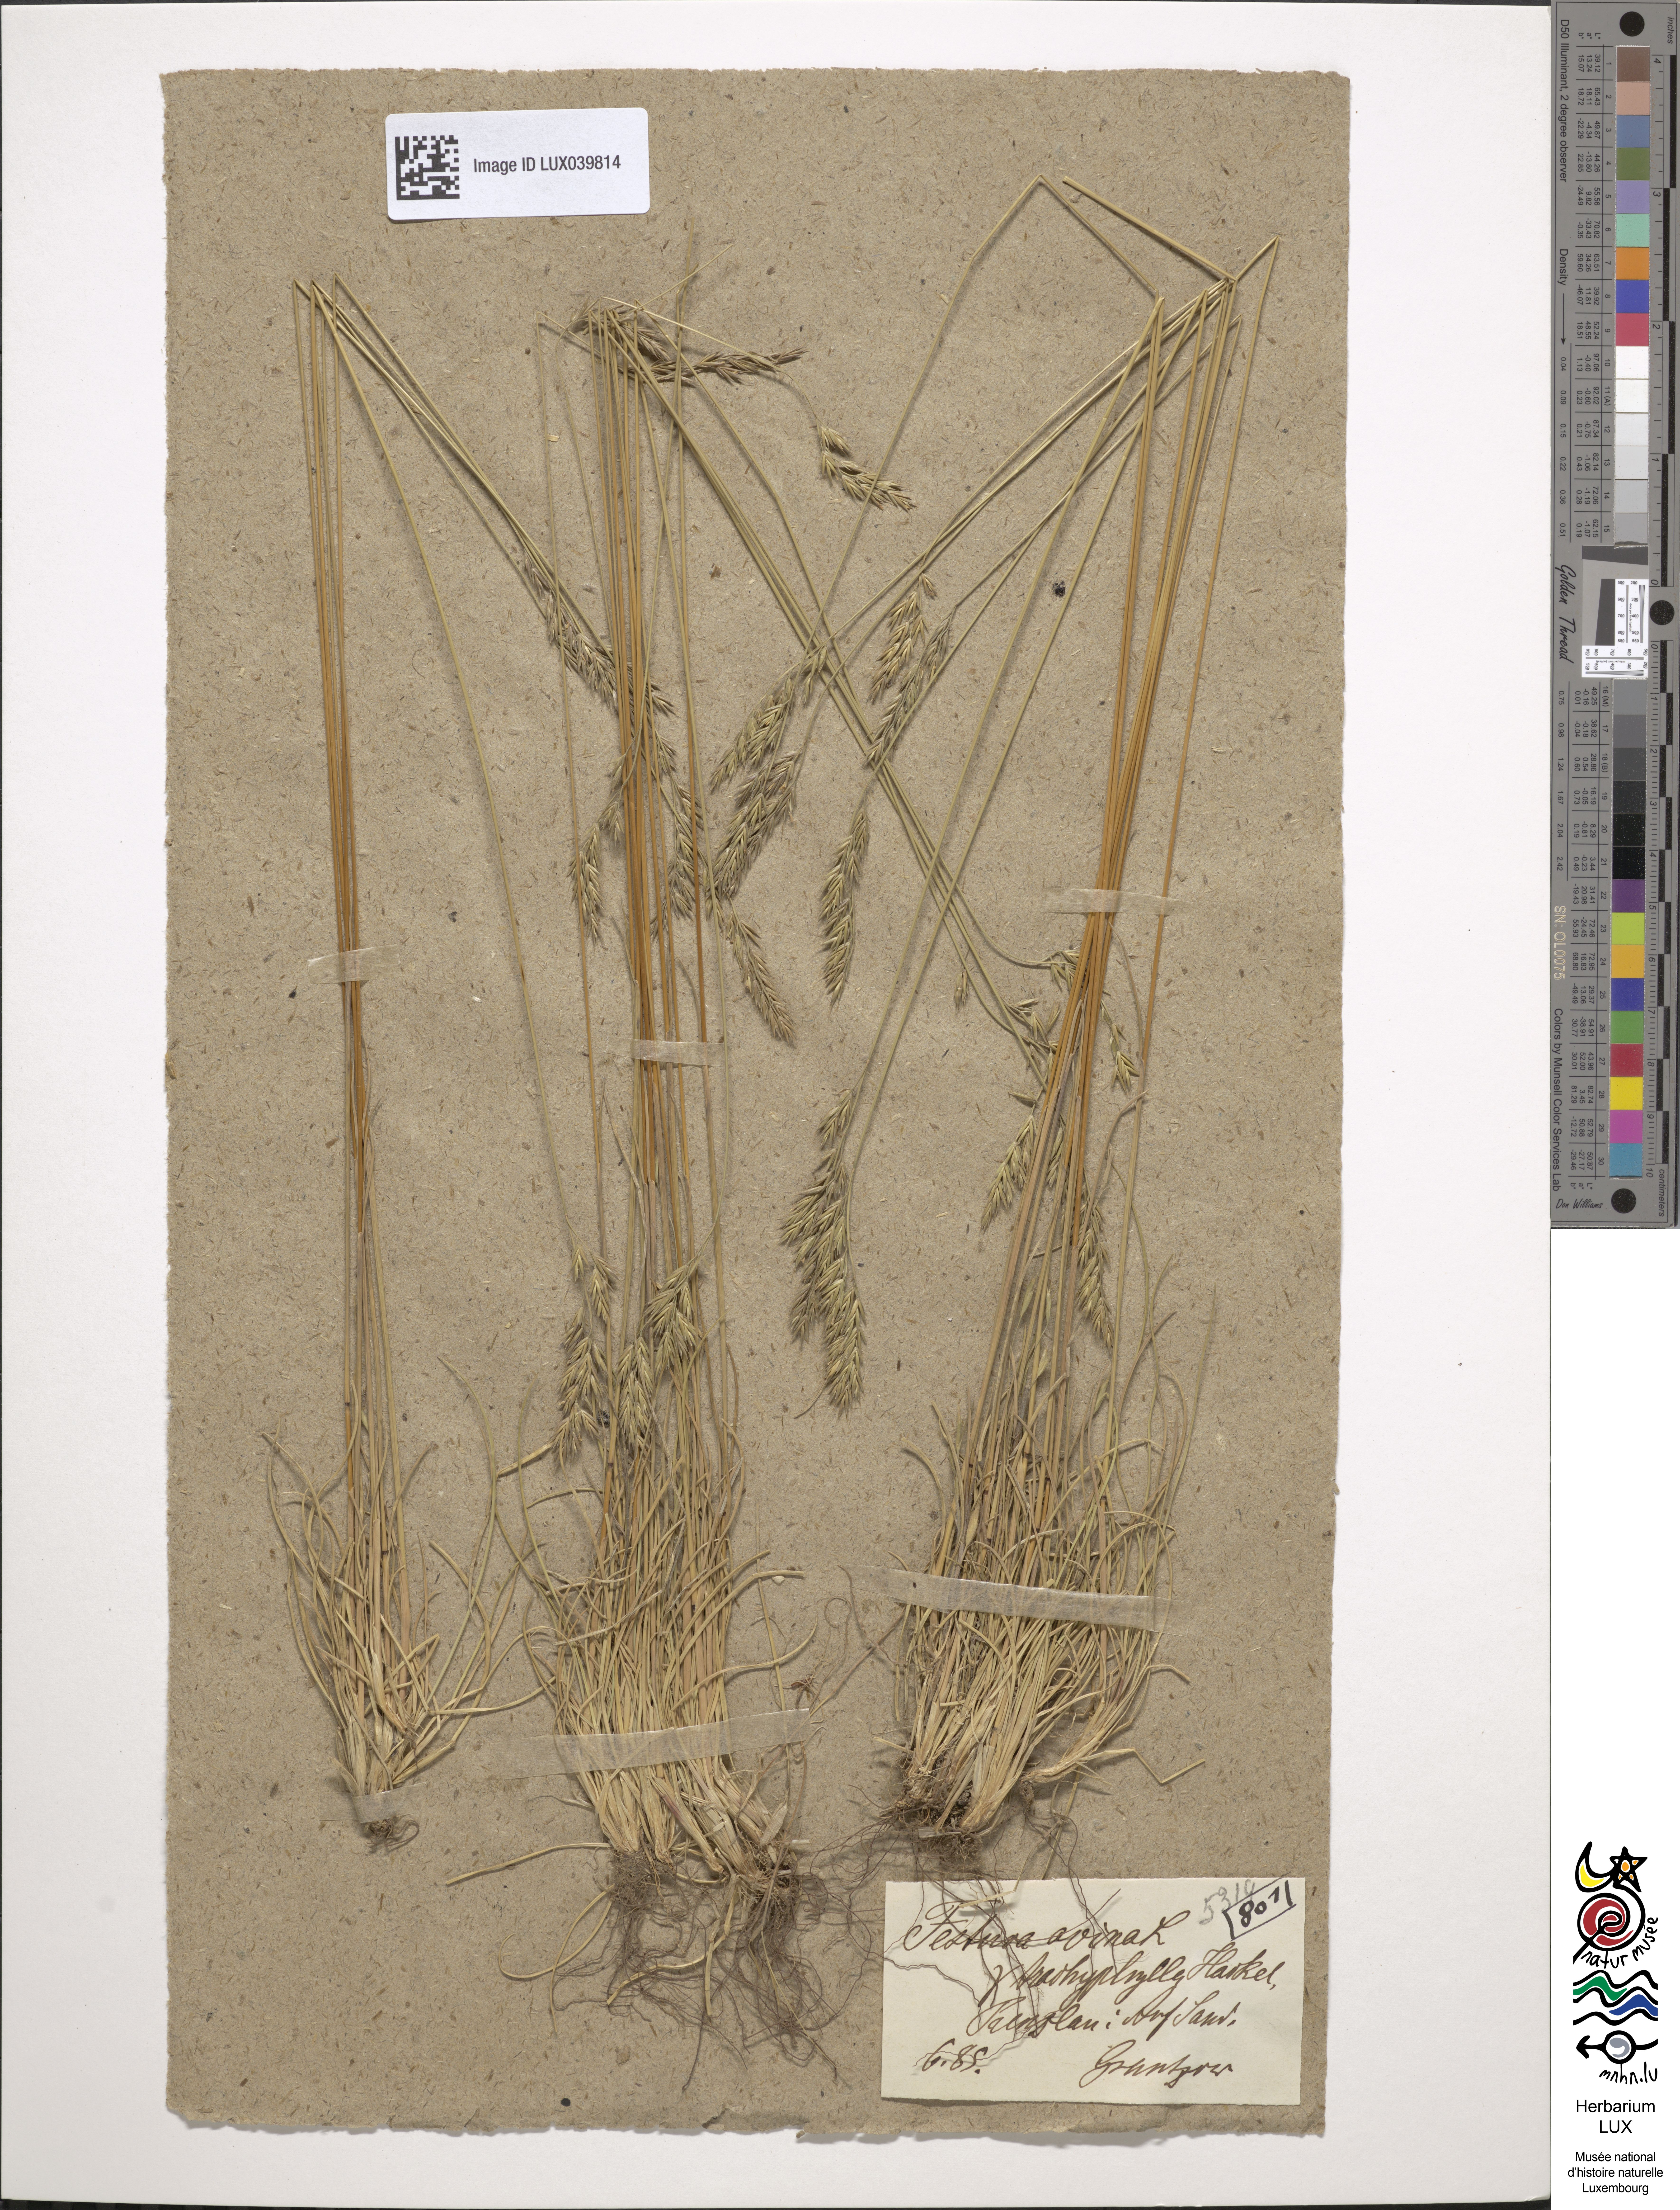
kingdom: Plantae
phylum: Tracheophyta
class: Liliopsida
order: Poales
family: Poaceae
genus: Festuca
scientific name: Festuca trachyphylla
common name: Hard fescue
